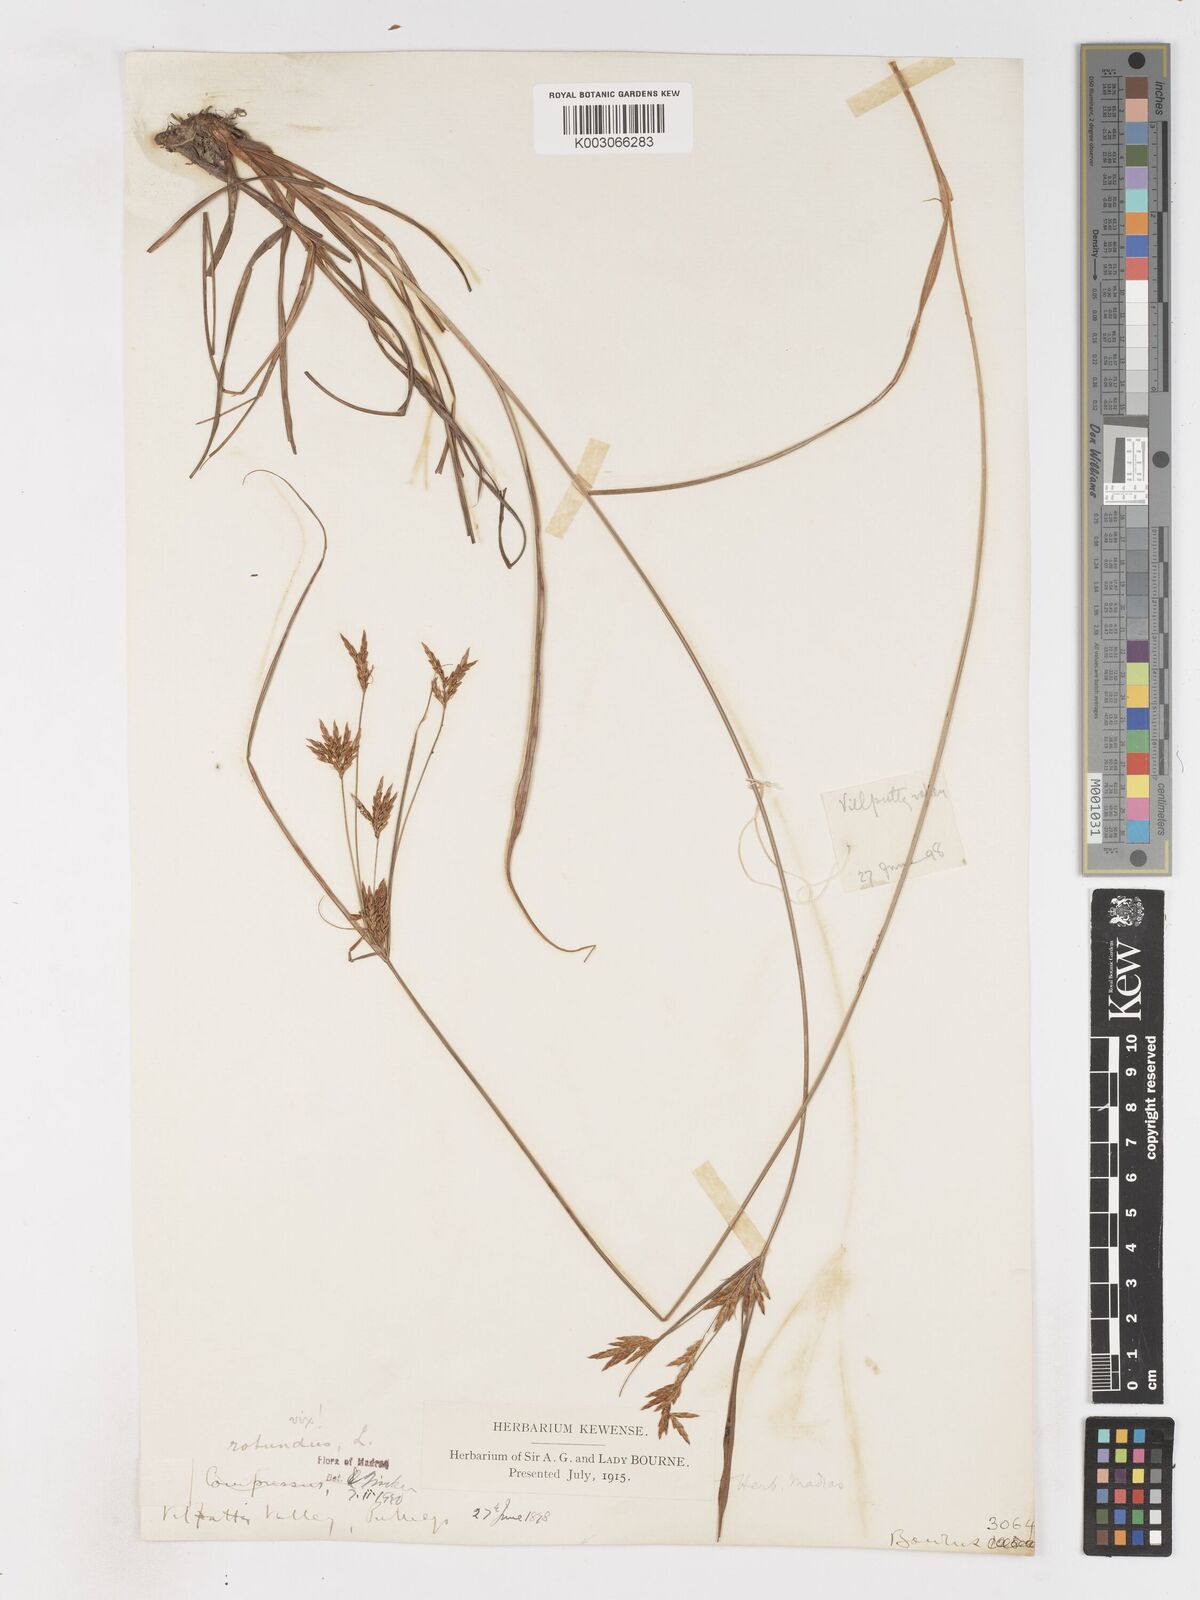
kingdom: Plantae
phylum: Tracheophyta
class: Liliopsida
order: Poales
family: Cyperaceae
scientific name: Cyperaceae
